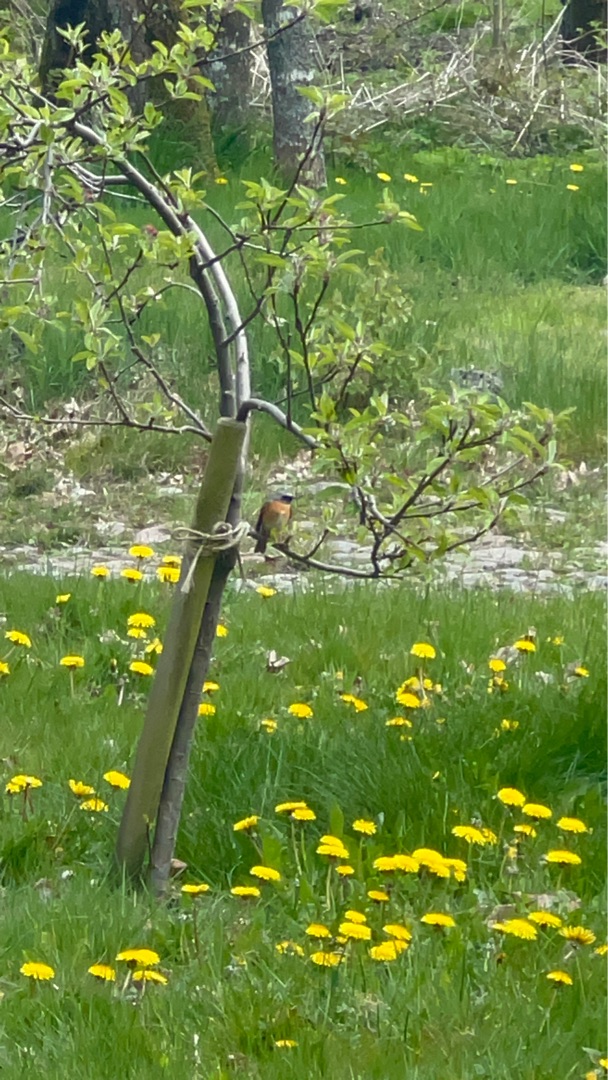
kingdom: Animalia
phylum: Chordata
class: Aves
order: Passeriformes
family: Muscicapidae
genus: Phoenicurus
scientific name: Phoenicurus phoenicurus
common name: Rødstjert
